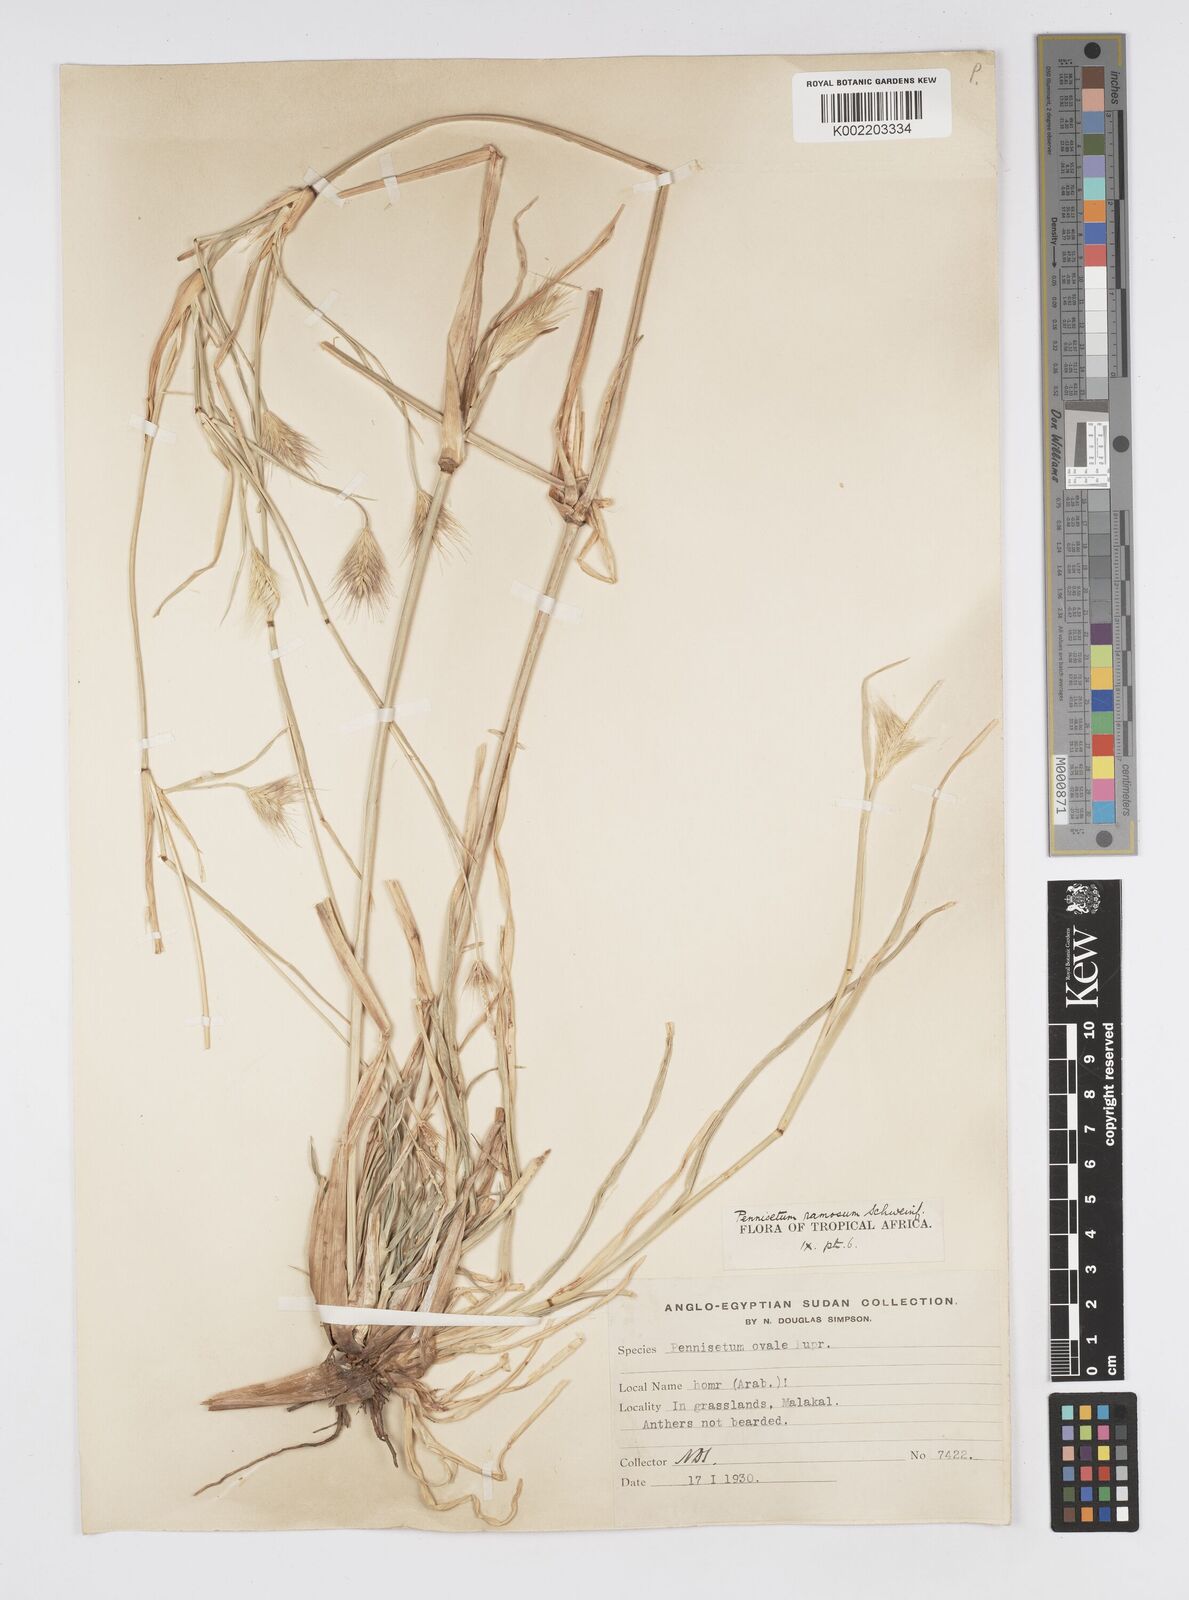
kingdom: Plantae
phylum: Tracheophyta
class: Liliopsida
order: Poales
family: Poaceae
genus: Cenchrus
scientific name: Cenchrus ramosus
